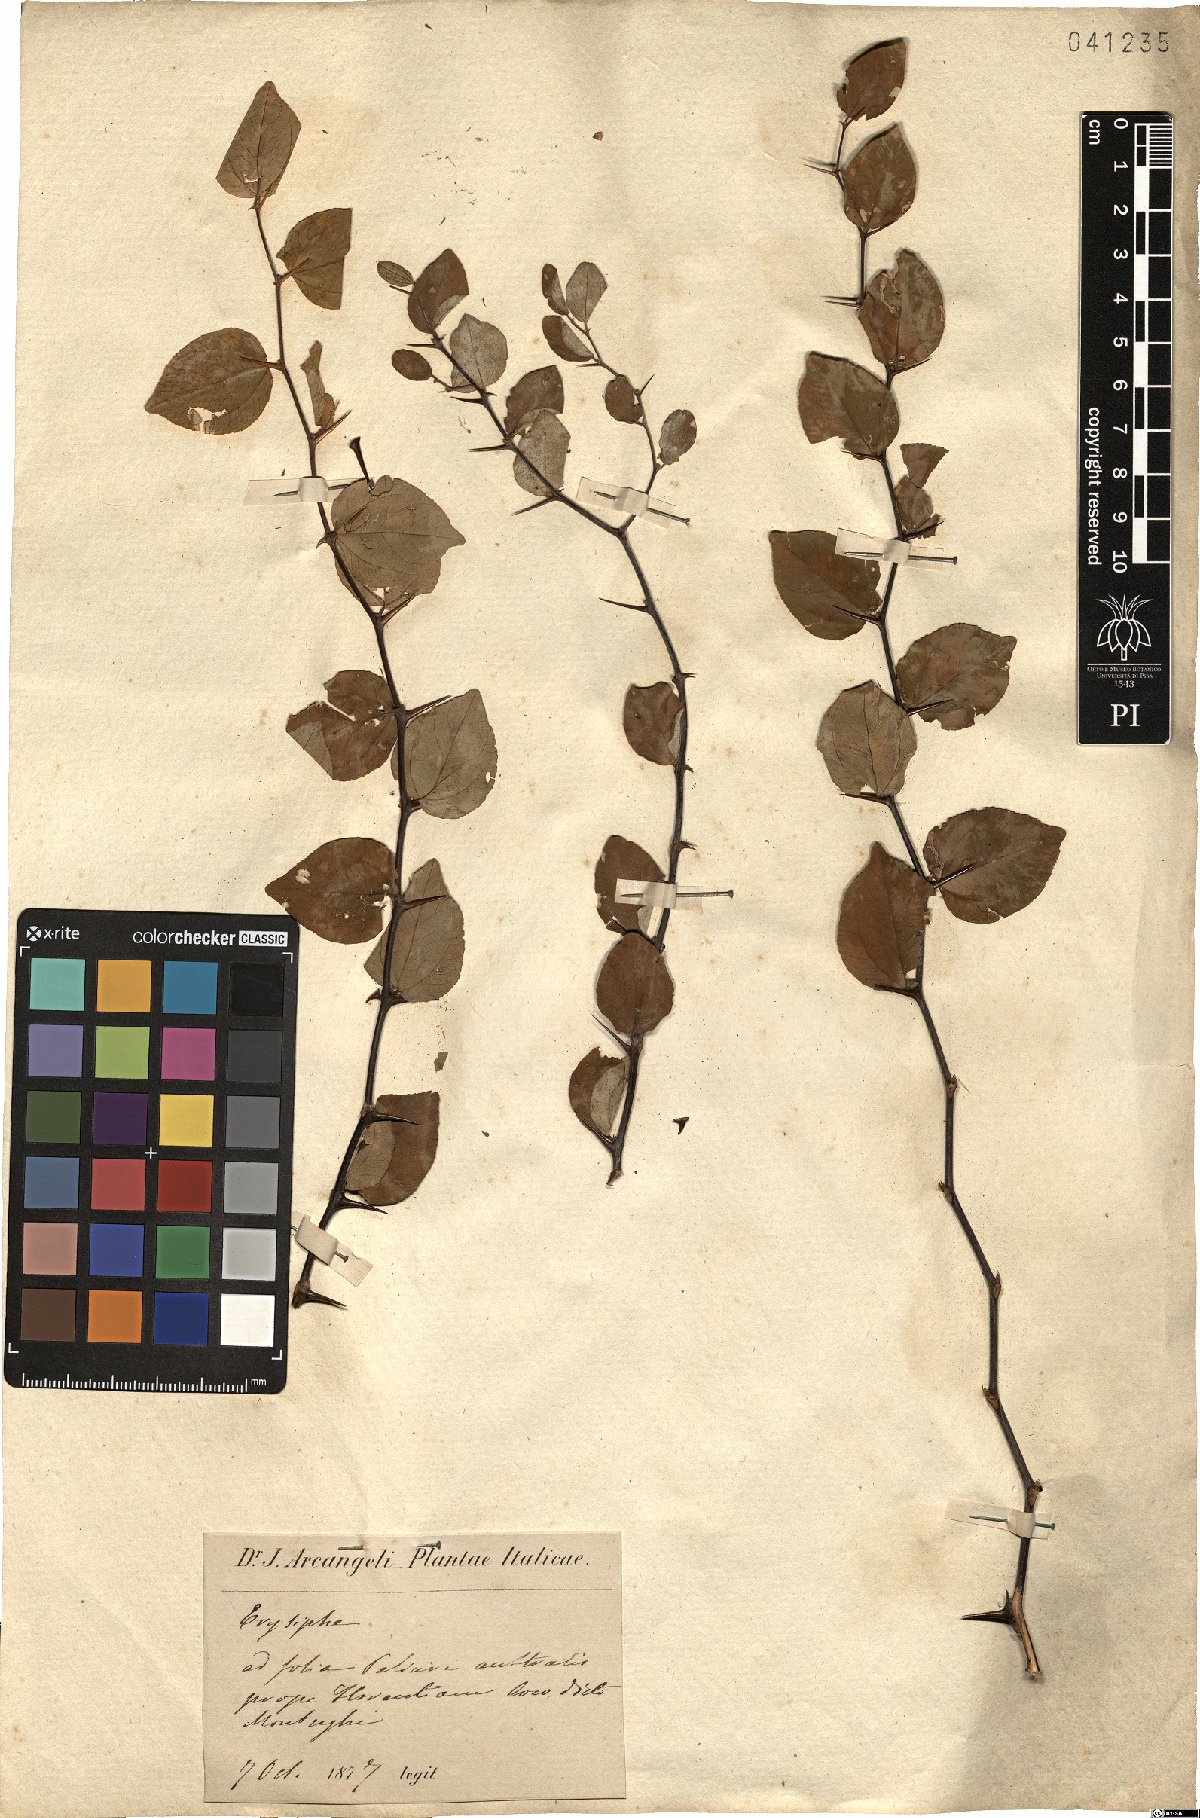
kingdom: Fungi
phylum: Ascomycota
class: Leotiomycetes
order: Helotiales
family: Erysiphaceae
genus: Erysiphe
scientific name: Erysiphe
